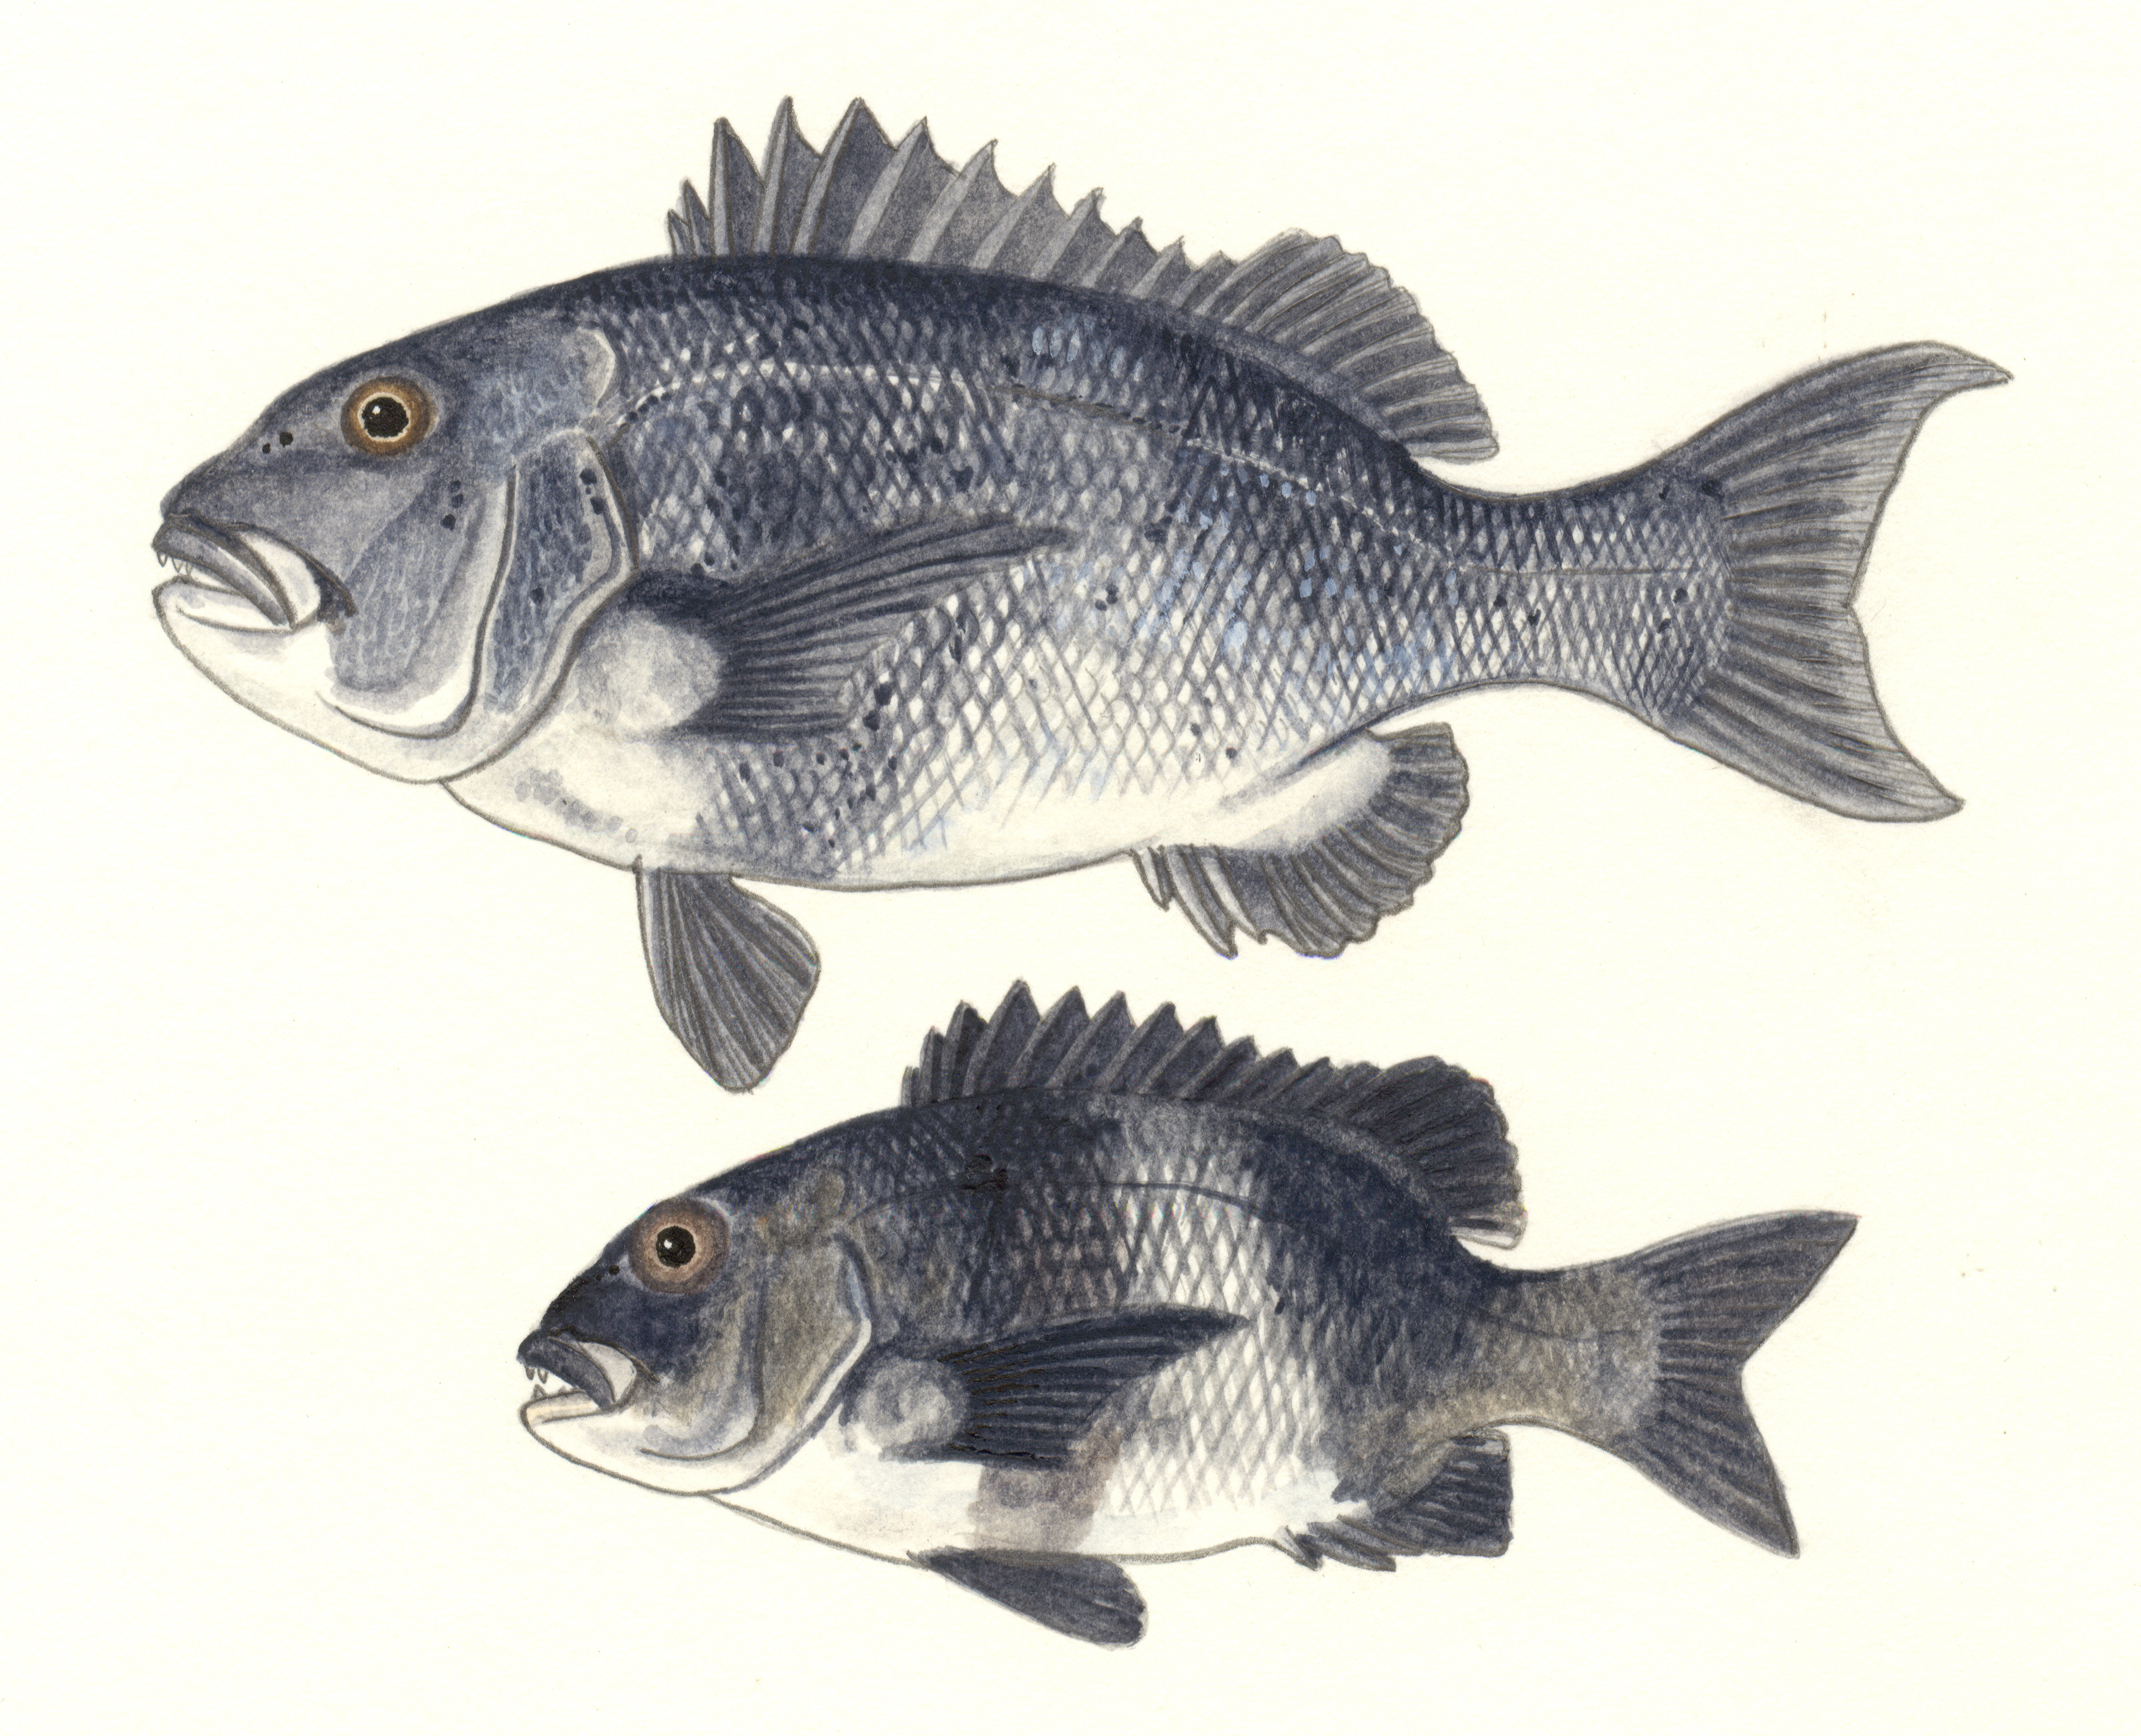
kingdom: Animalia
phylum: Chordata
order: Perciformes
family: Sparidae
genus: Cymatoceps
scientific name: Cymatoceps nasutus
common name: Black musselcracker
